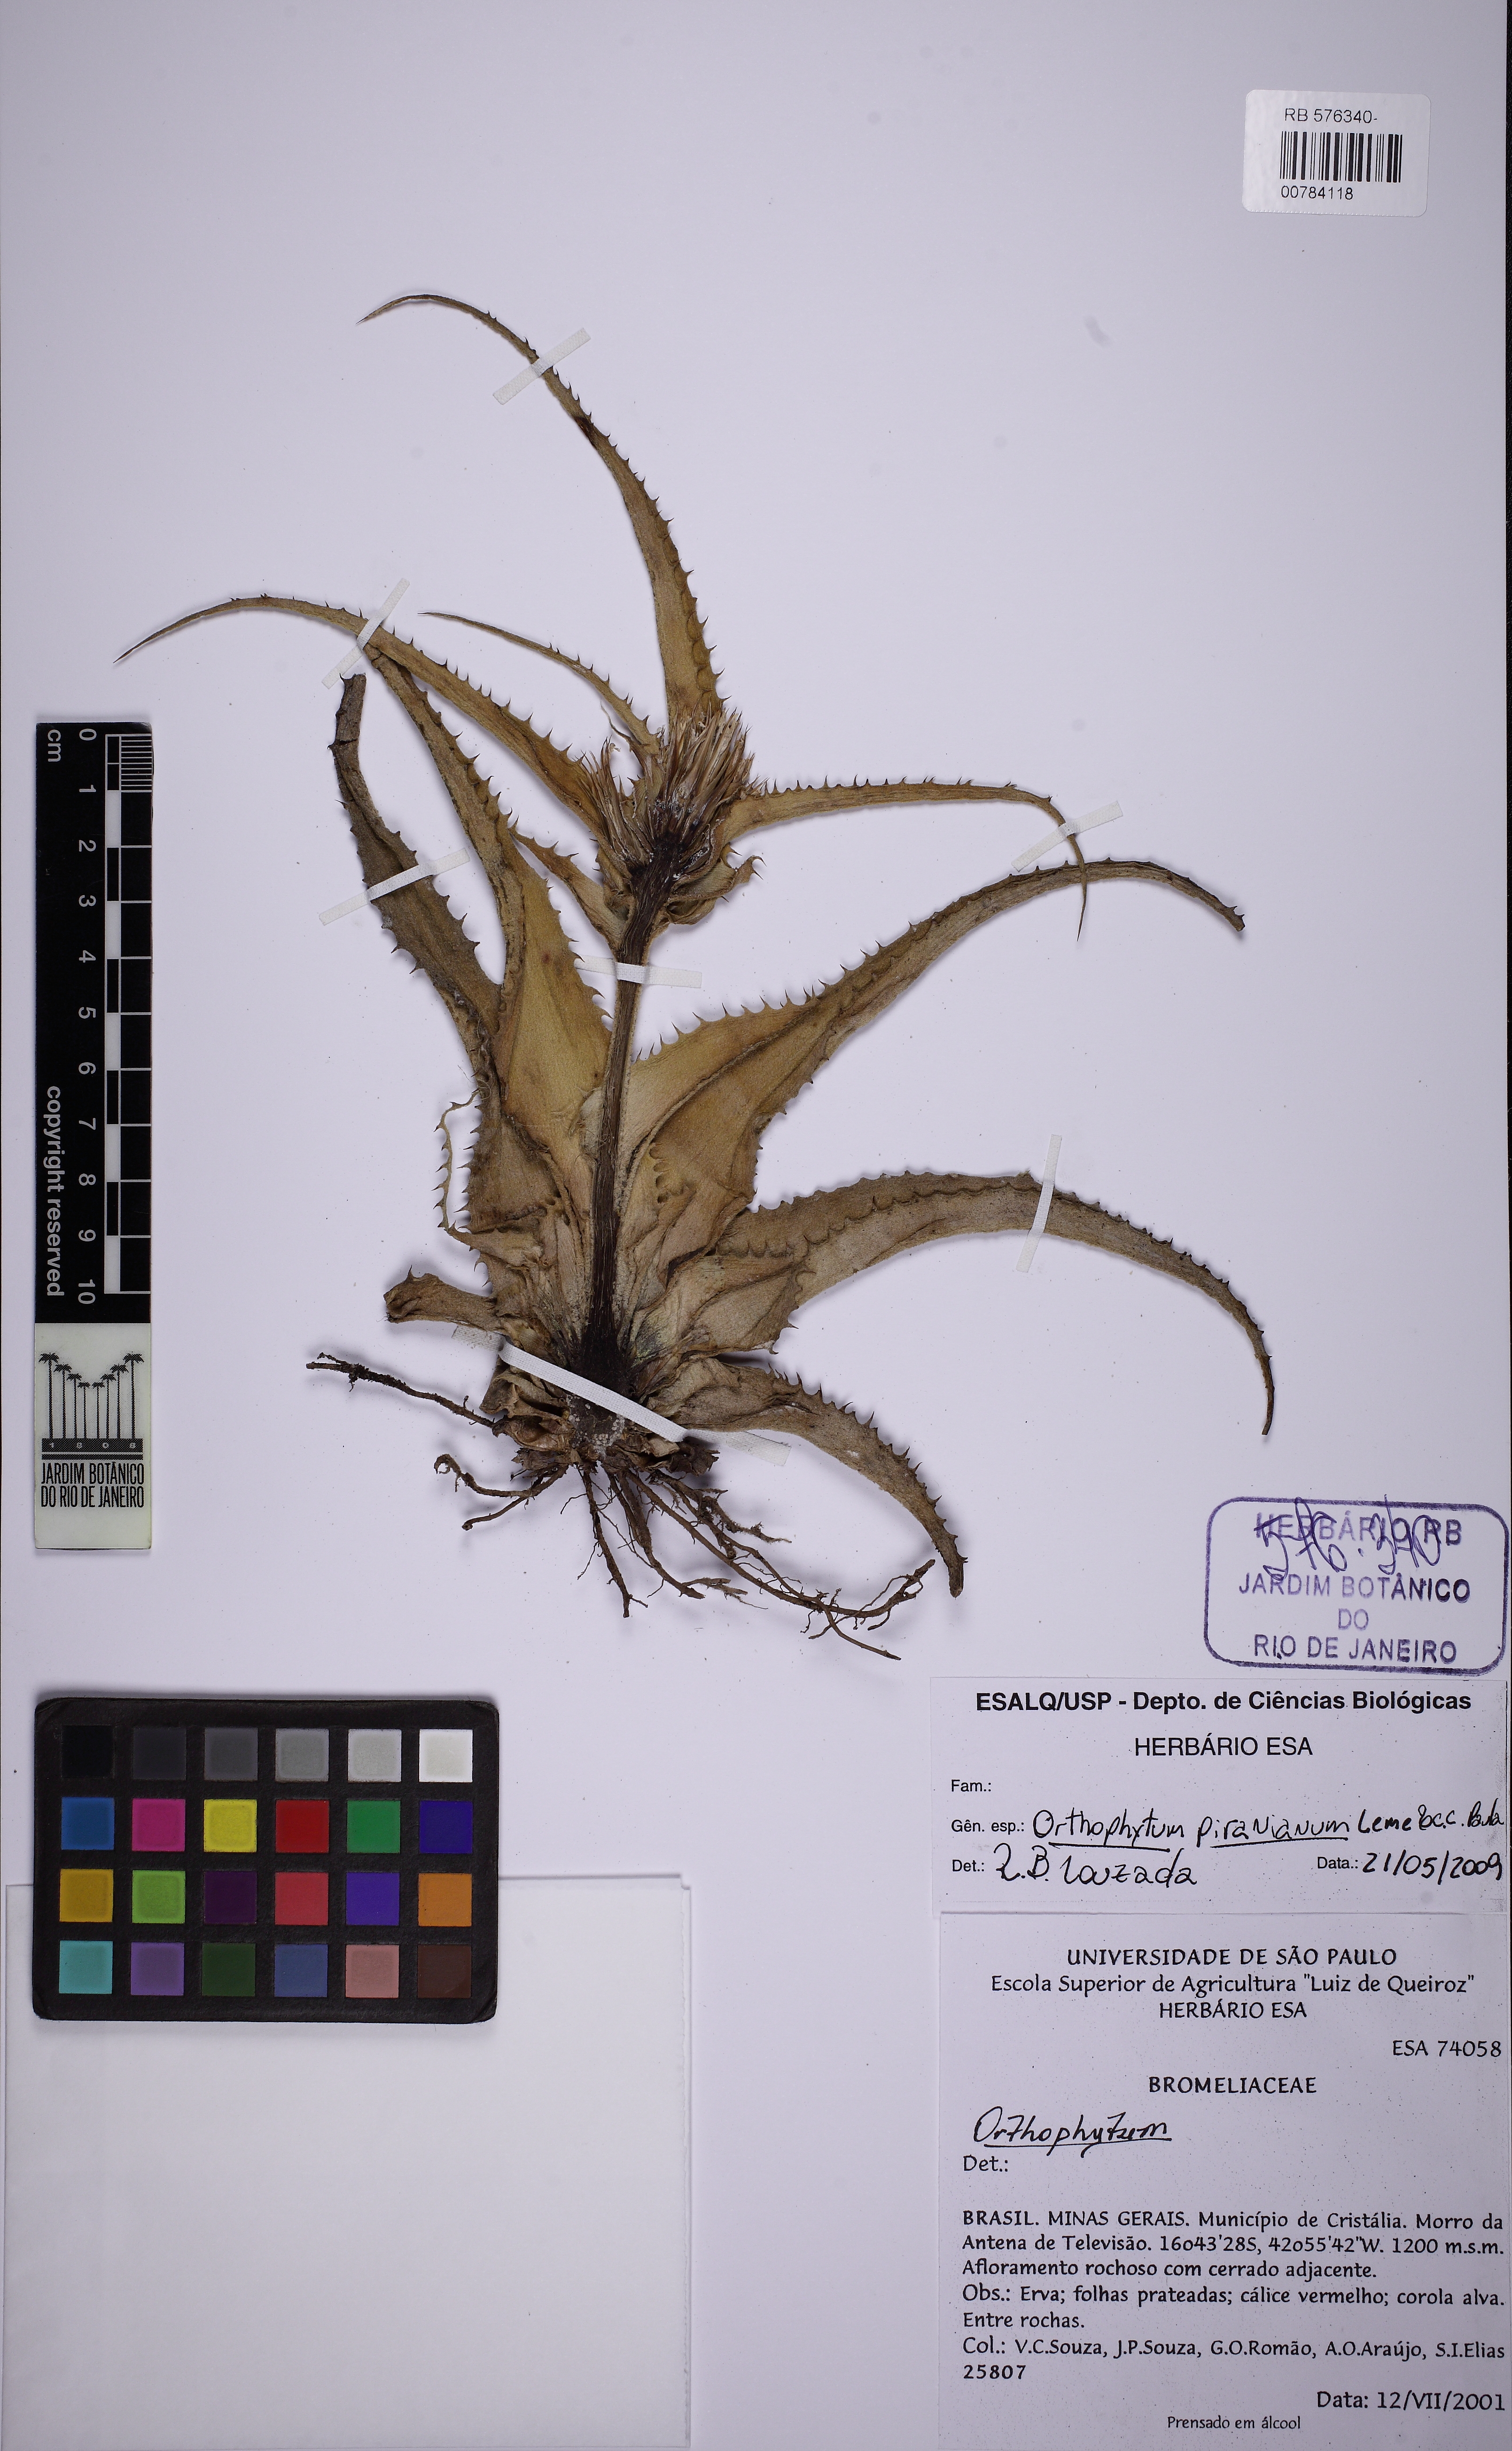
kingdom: Plantae
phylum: Tracheophyta
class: Liliopsida
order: Poales
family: Bromeliaceae
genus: Orthophytum
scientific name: Orthophytum piranianum
